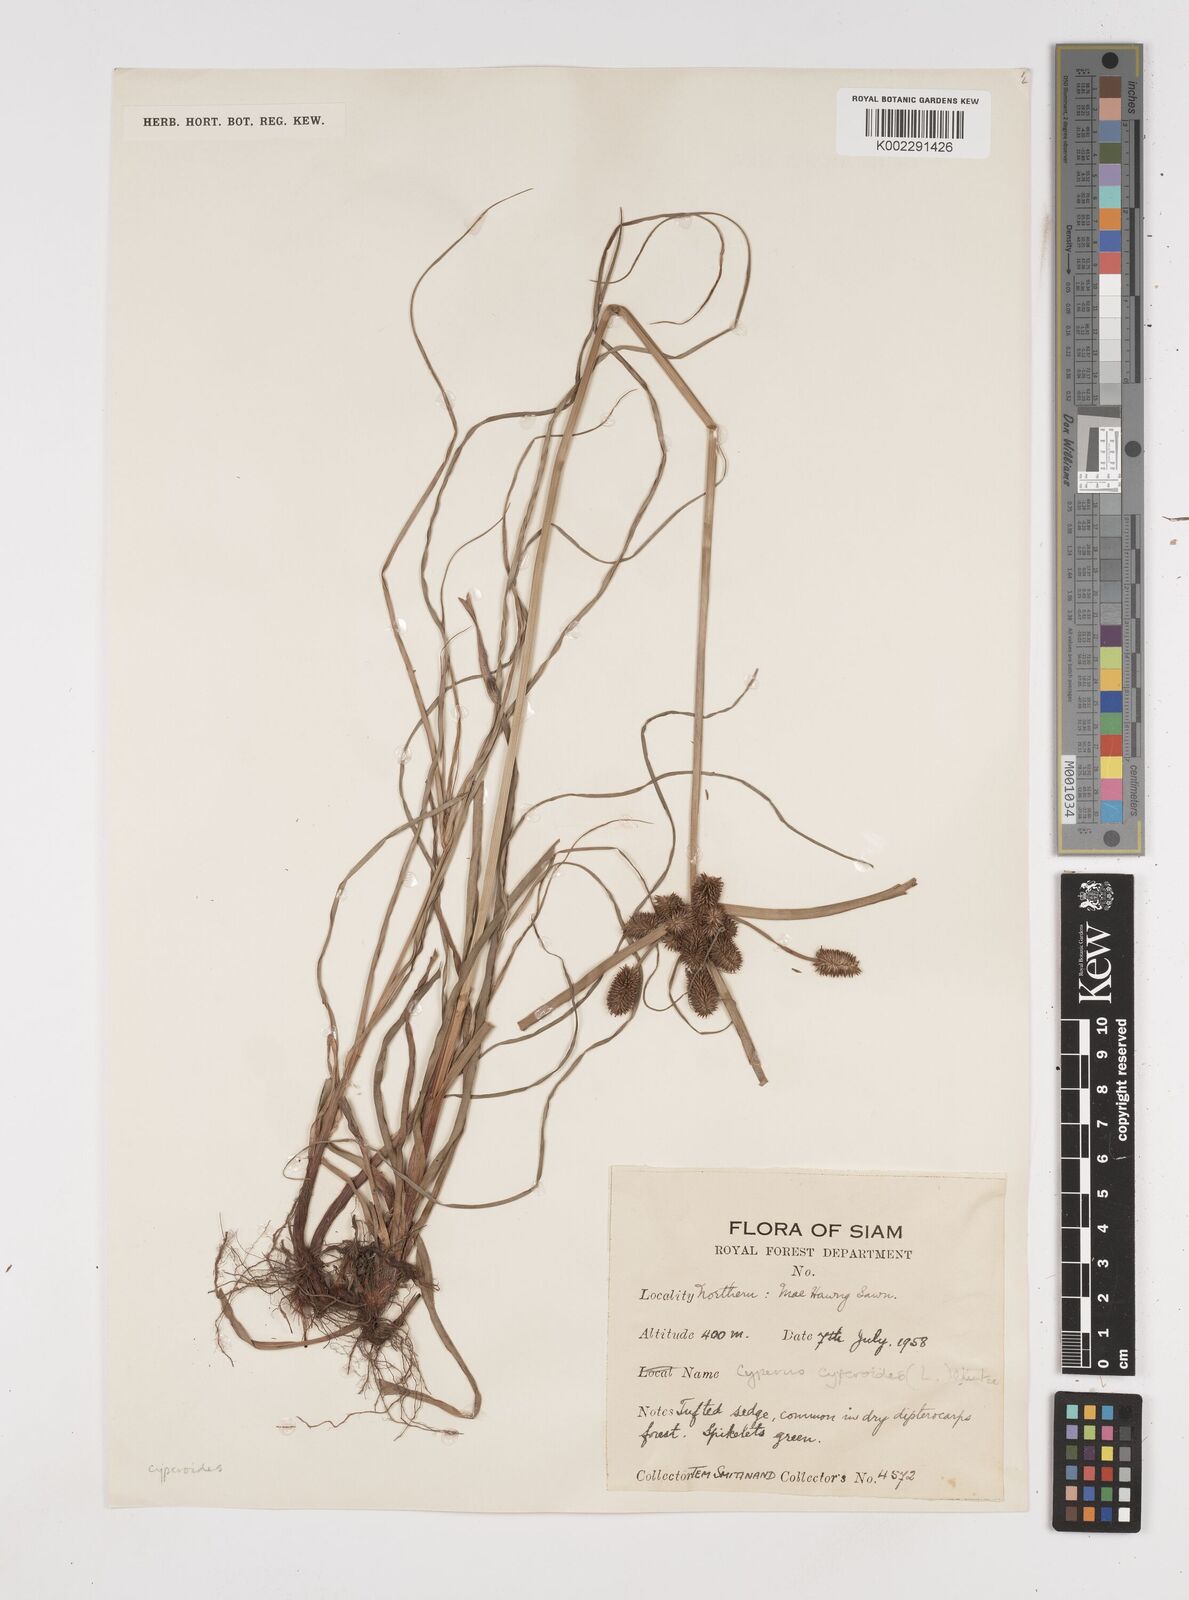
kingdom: Plantae
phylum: Tracheophyta
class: Liliopsida
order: Poales
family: Cyperaceae
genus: Cyperus
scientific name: Cyperus cyperoides
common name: Pacific island flat sedge
